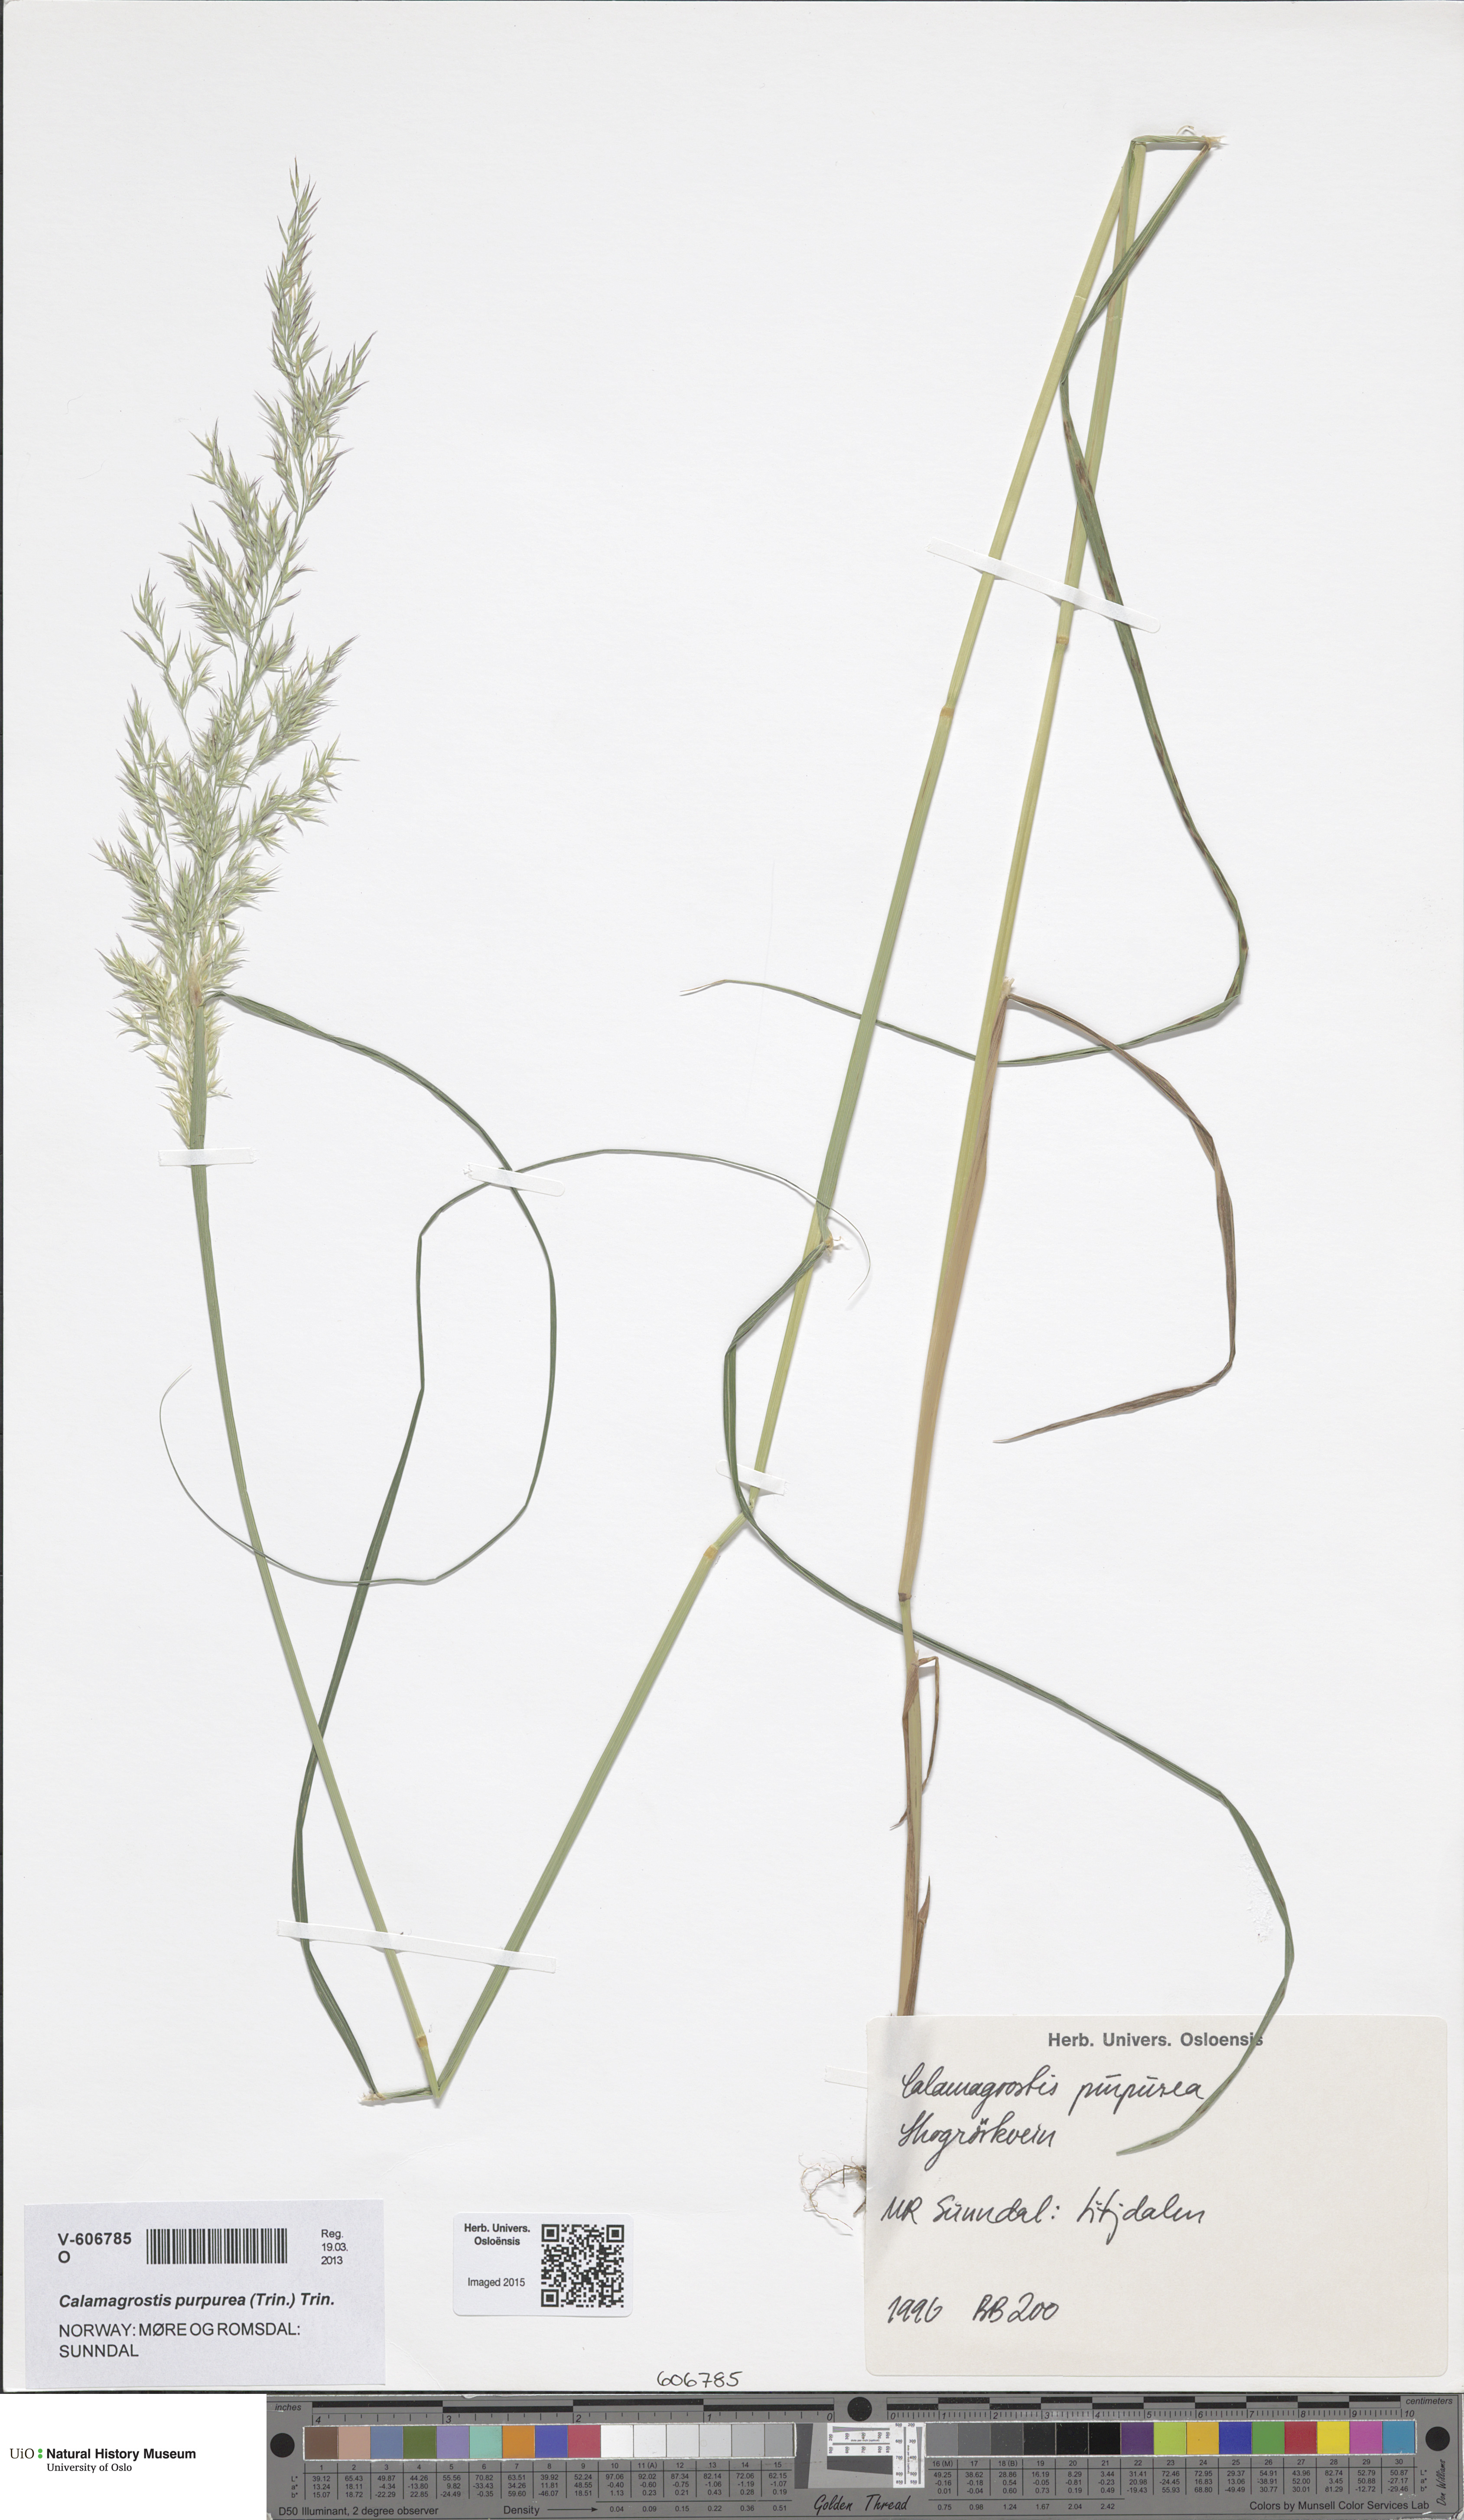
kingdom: Plantae
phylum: Tracheophyta
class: Liliopsida
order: Poales
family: Poaceae
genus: Calamagrostis
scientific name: Calamagrostis purpurea
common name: Scandinavian small-reed
